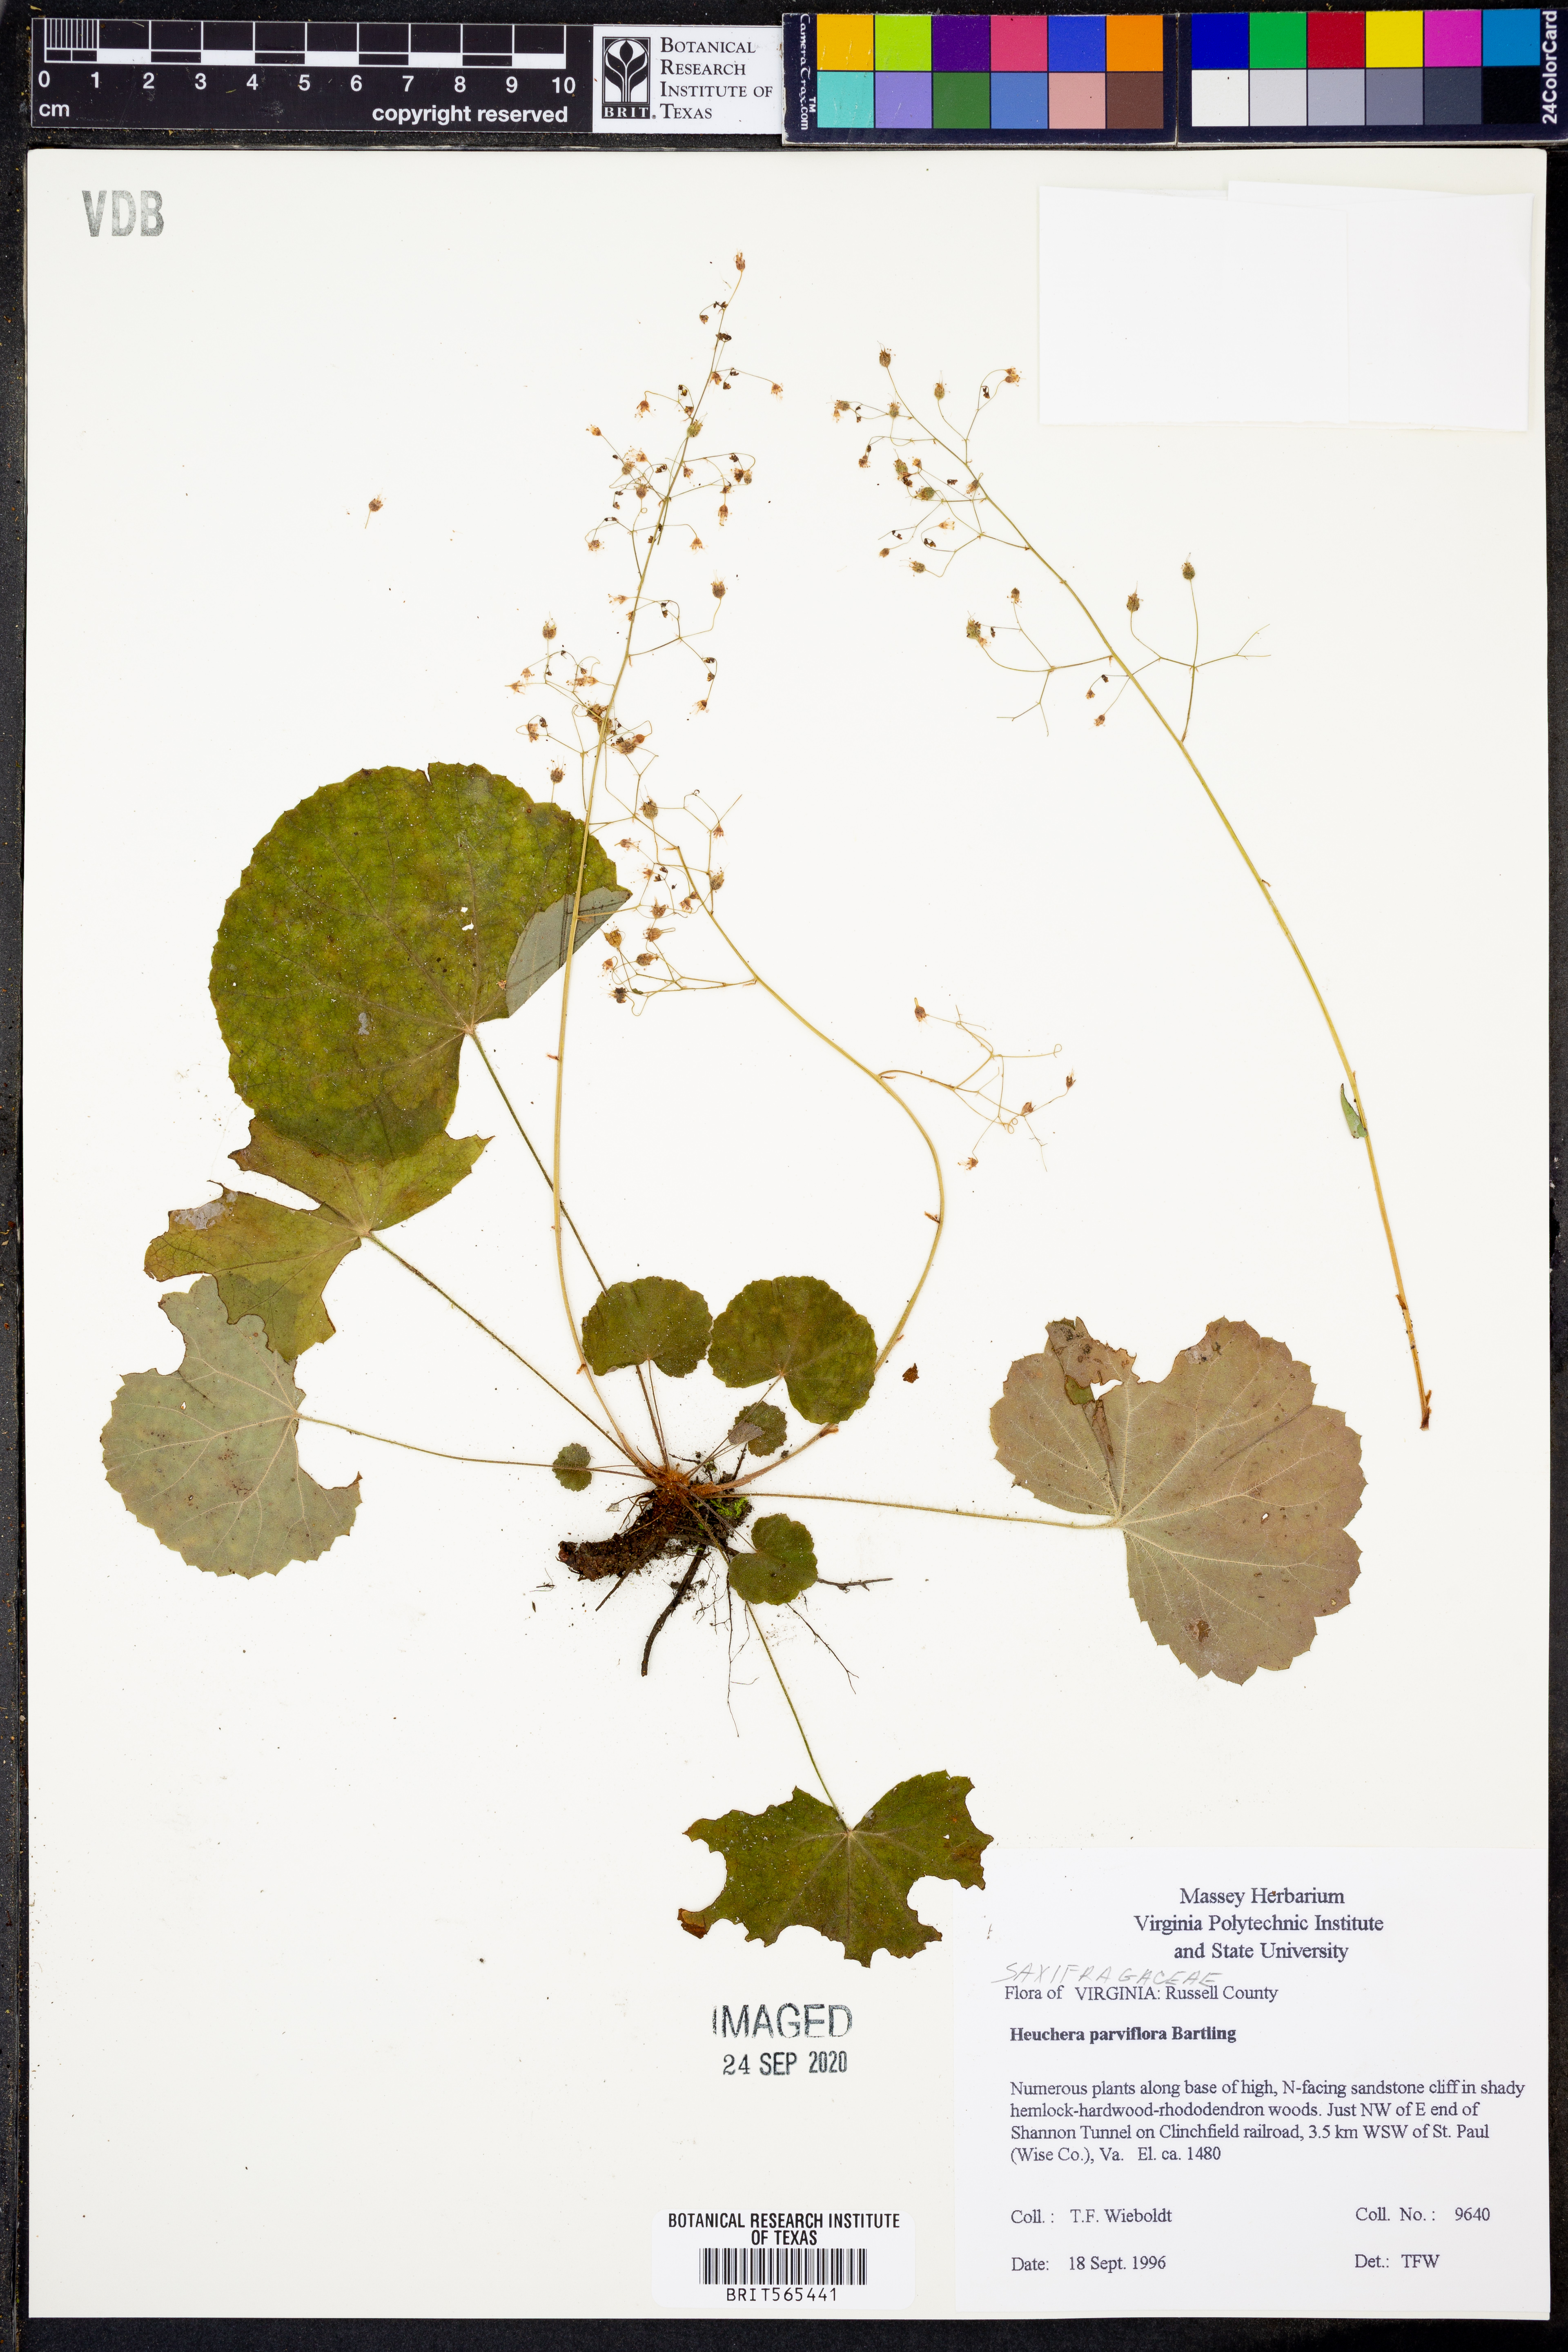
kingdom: Plantae
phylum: Tracheophyta
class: Magnoliopsida
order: Saxifragales
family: Saxifragaceae
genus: Heuchera
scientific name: Heuchera parviflora
